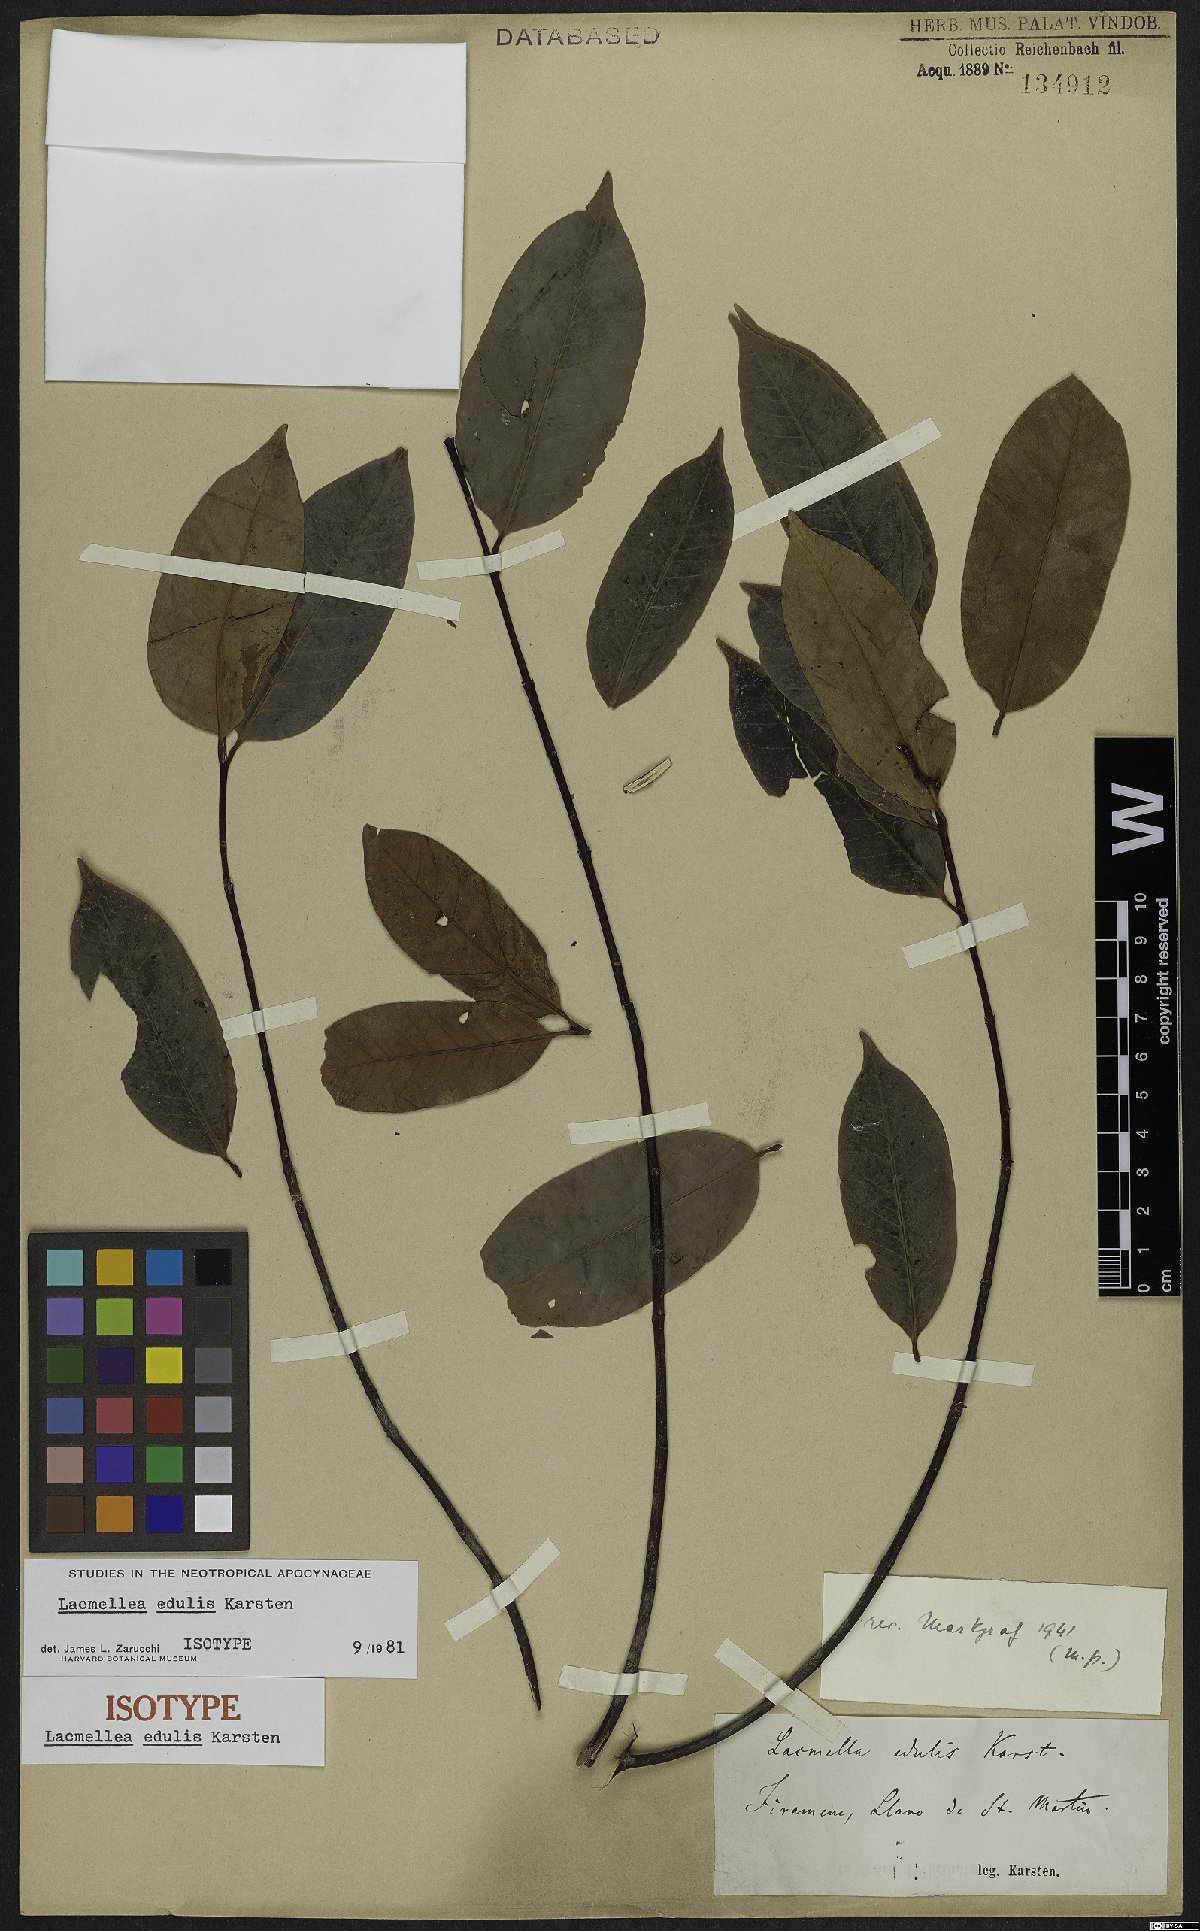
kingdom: Plantae
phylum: Tracheophyta
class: Magnoliopsida
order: Gentianales
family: Apocynaceae
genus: Lacmellea
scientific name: Lacmellea edulis
